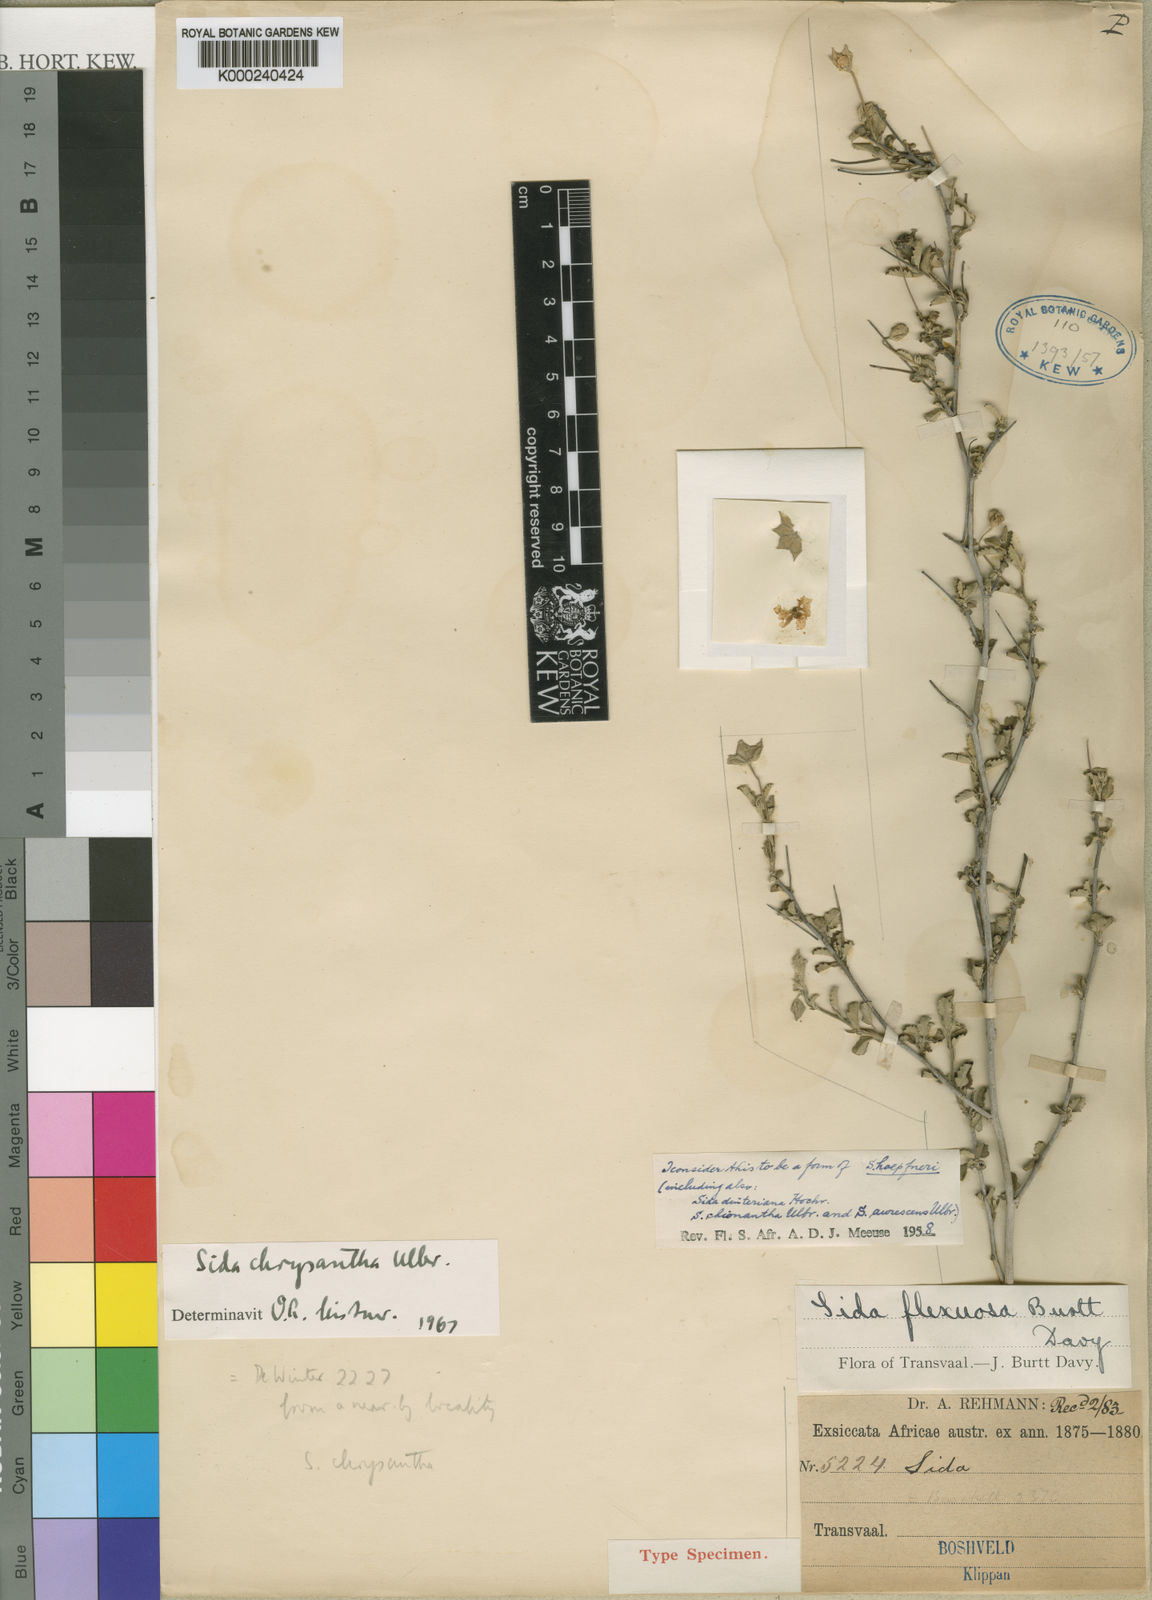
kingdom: Plantae
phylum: Tracheophyta
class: Magnoliopsida
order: Malvales
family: Malvaceae
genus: Sida
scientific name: Sida chrysantha
